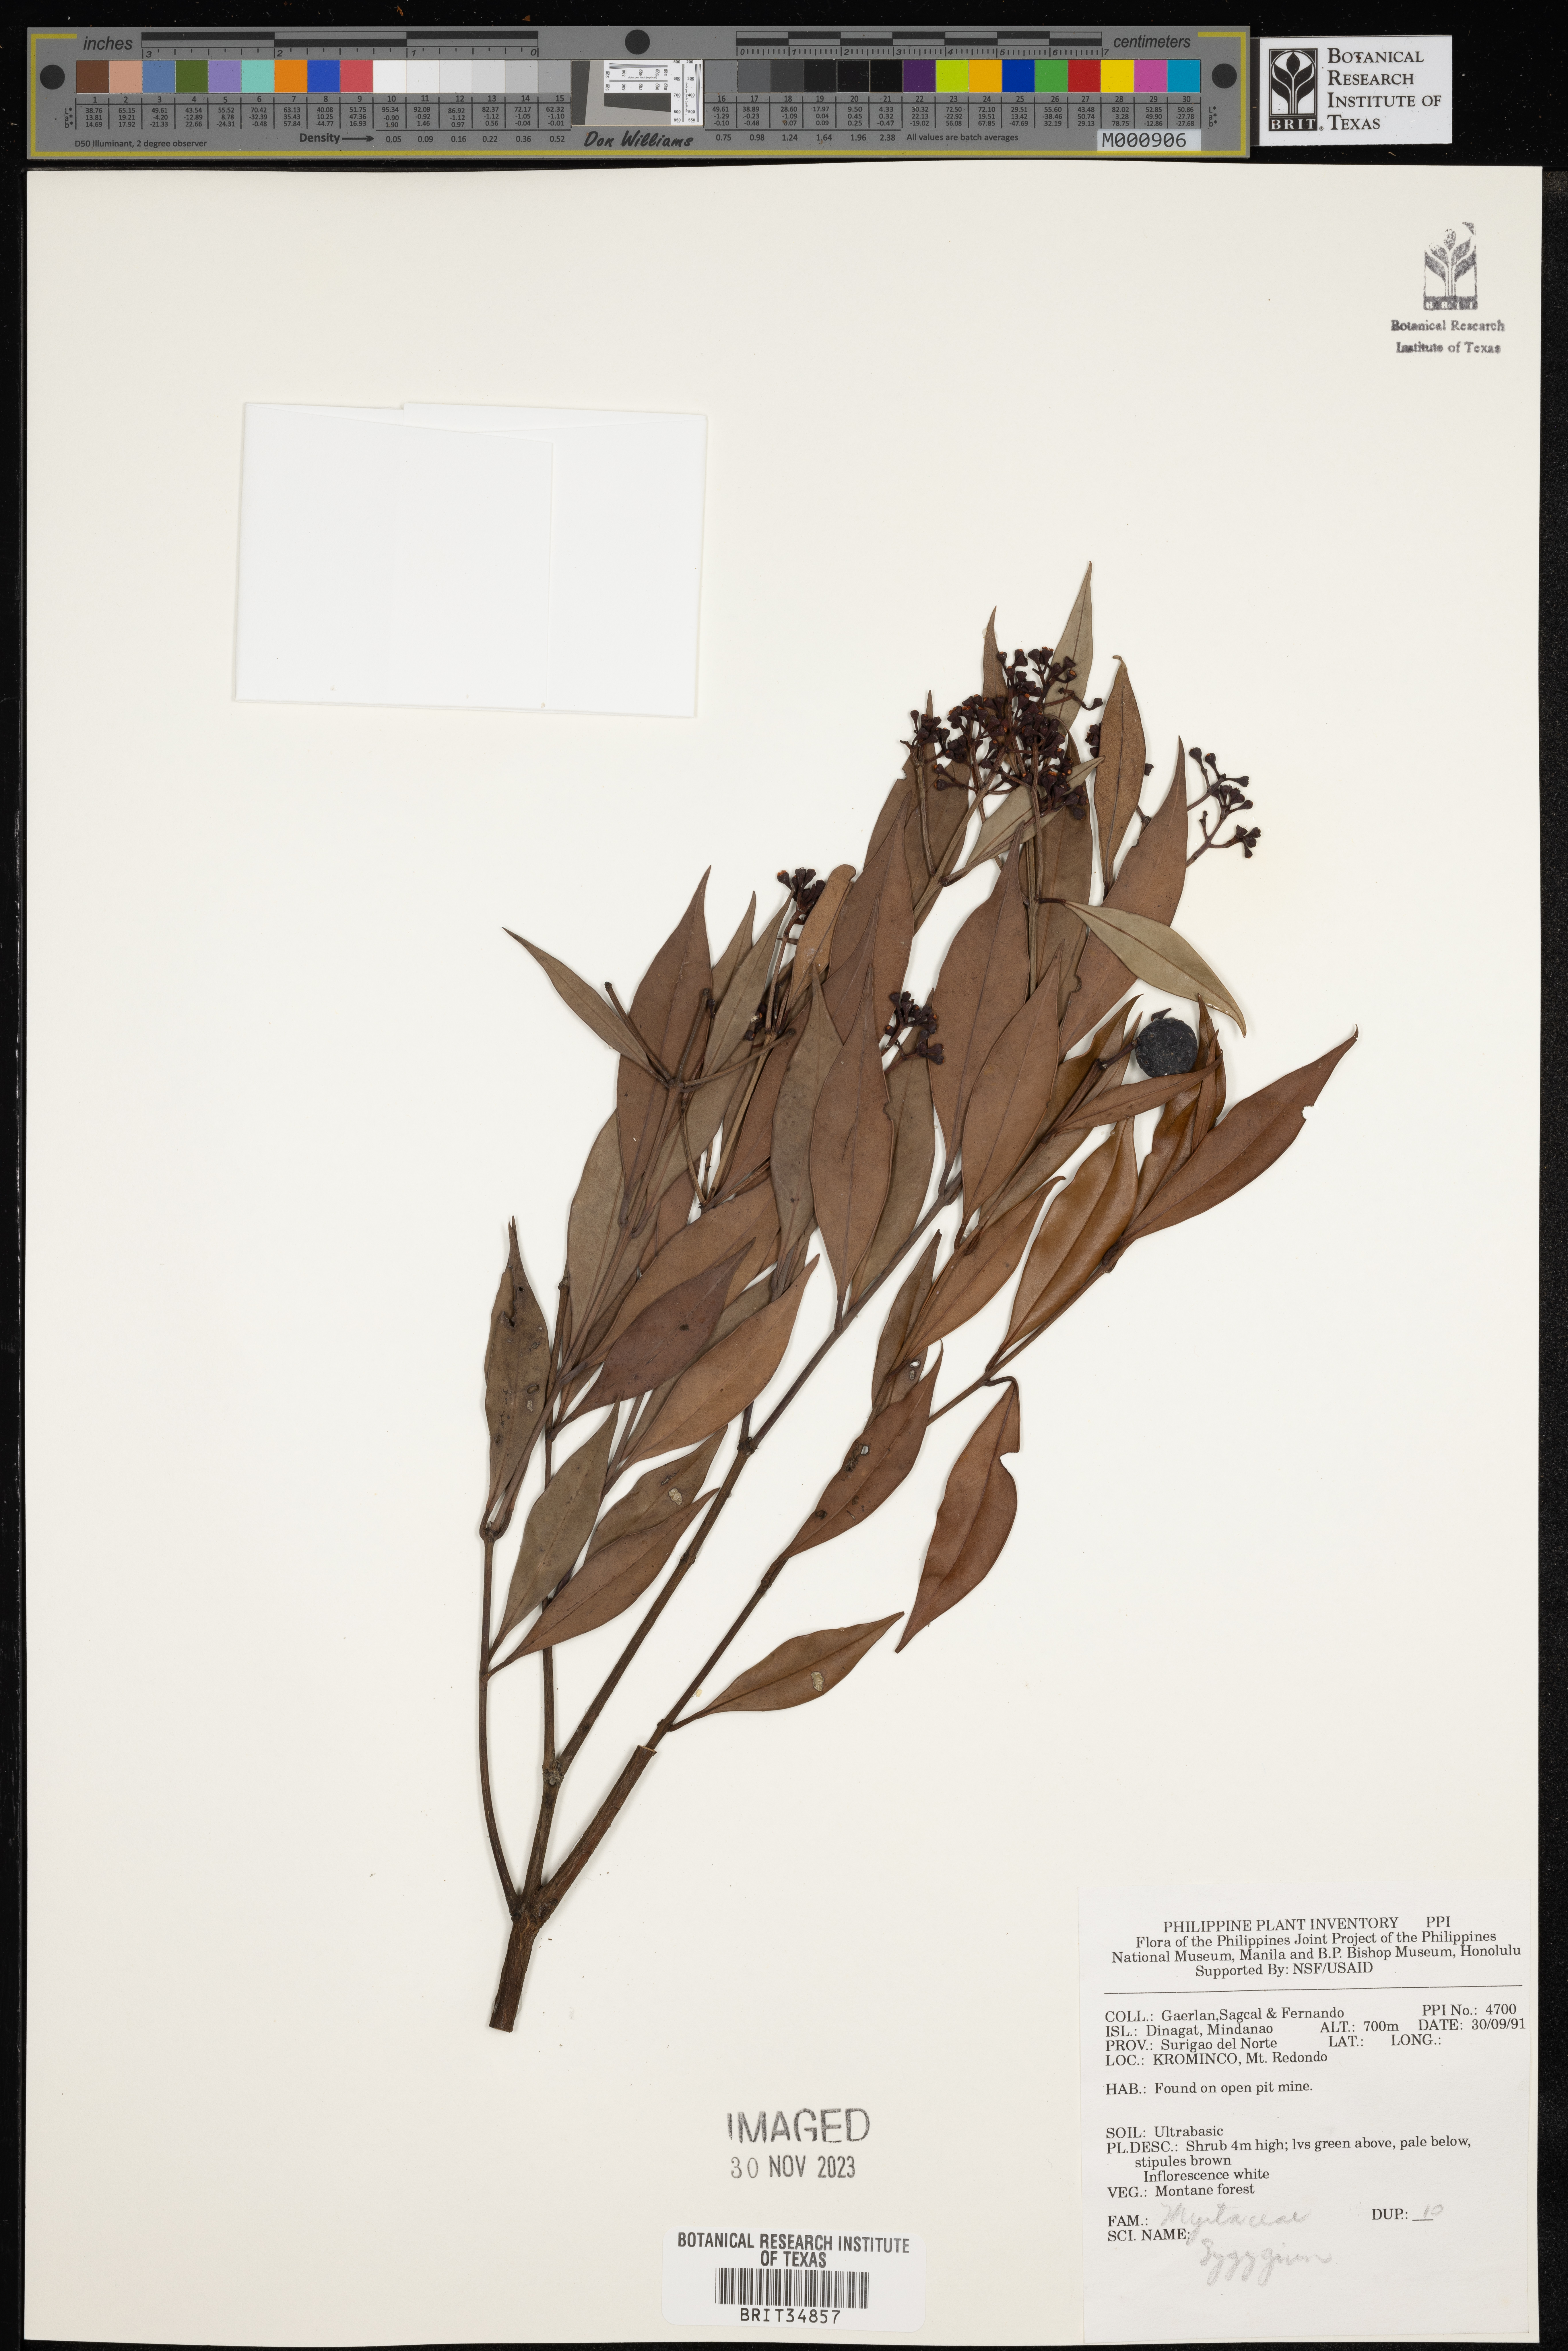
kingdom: Plantae
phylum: Tracheophyta
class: Magnoliopsida
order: Myrtales
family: Myrtaceae
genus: Syzygium
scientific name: Syzygium
